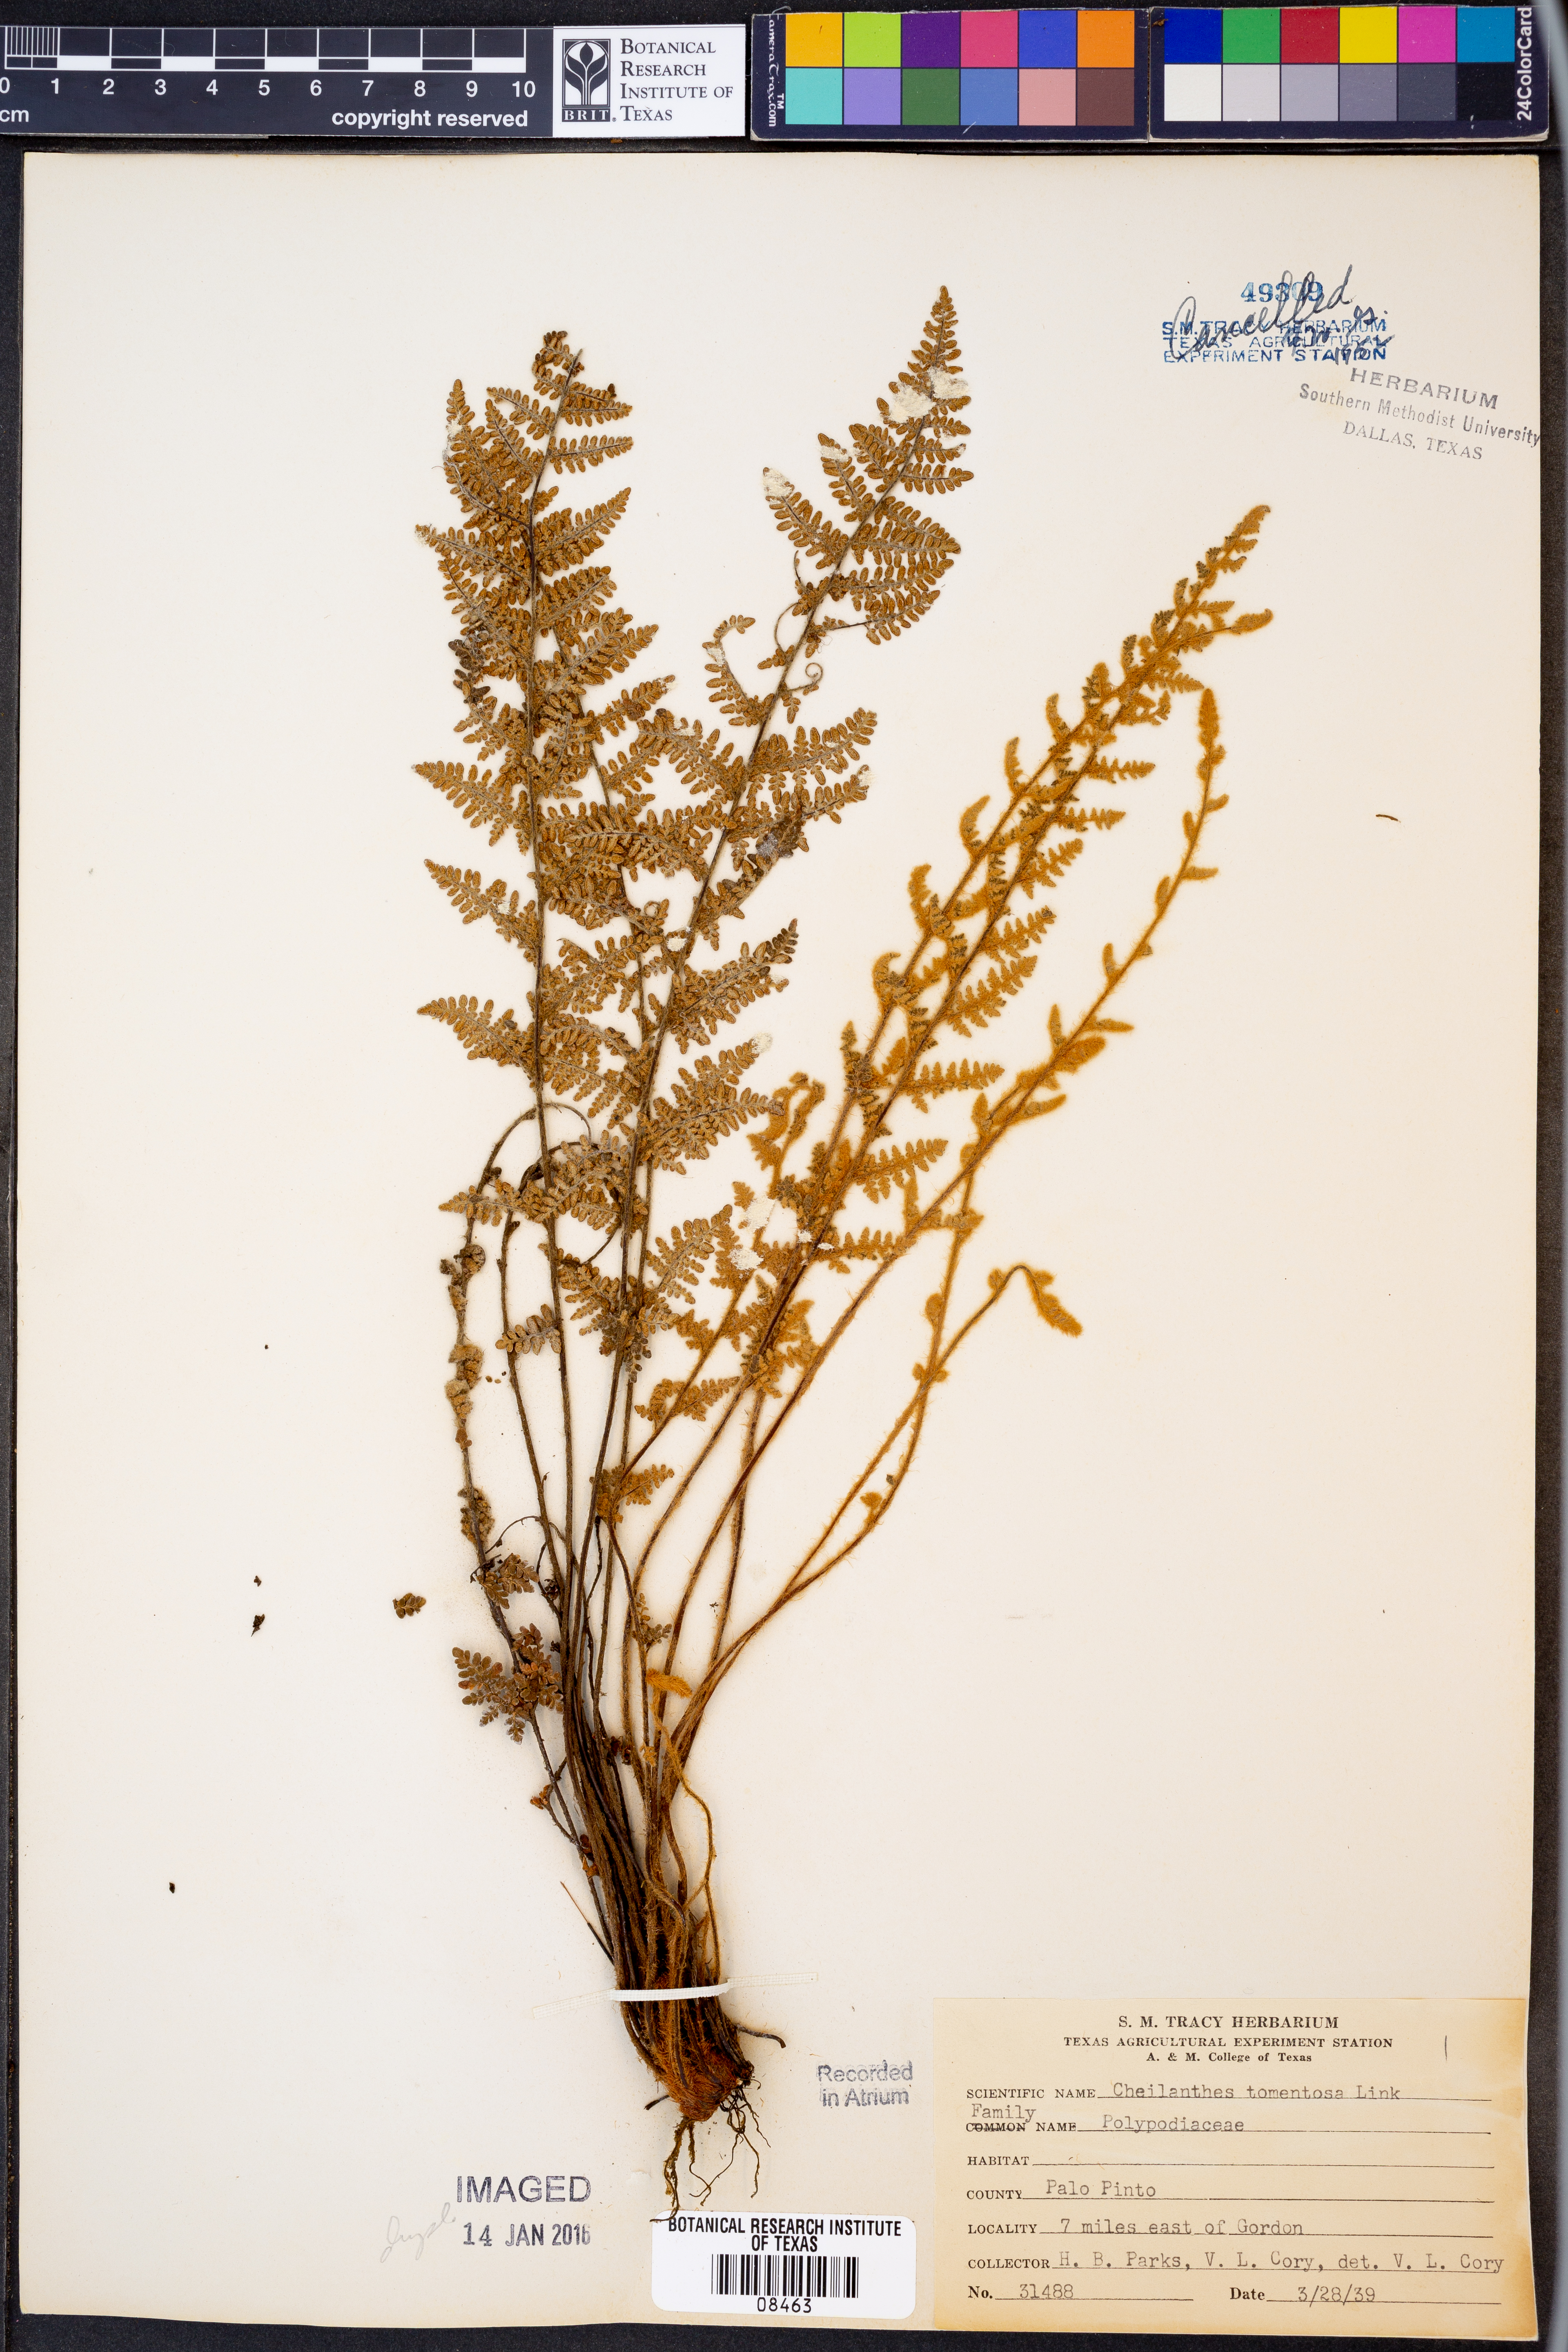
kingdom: Plantae
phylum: Tracheophyta
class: Polypodiopsida
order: Polypodiales
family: Pteridaceae
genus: Myriopteris
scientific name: Myriopteris tomentosa
